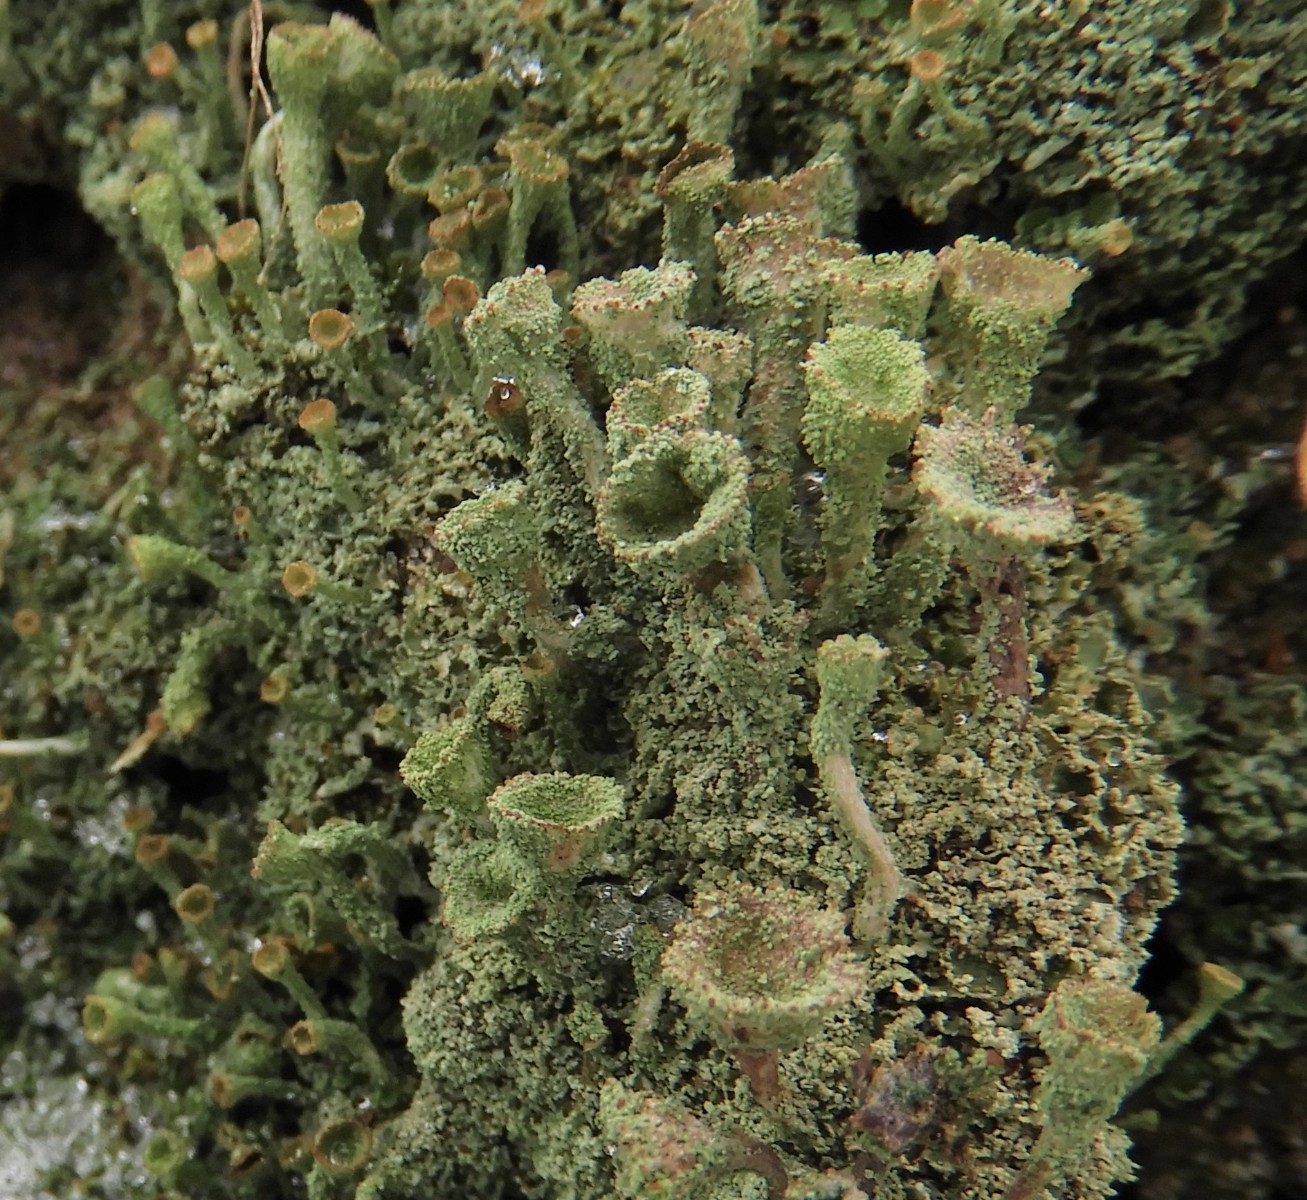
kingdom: Fungi
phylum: Ascomycota
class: Lecanoromycetes
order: Lecanorales
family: Cladoniaceae
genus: Cladonia
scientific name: Cladonia
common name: brungrøn bægerlav
